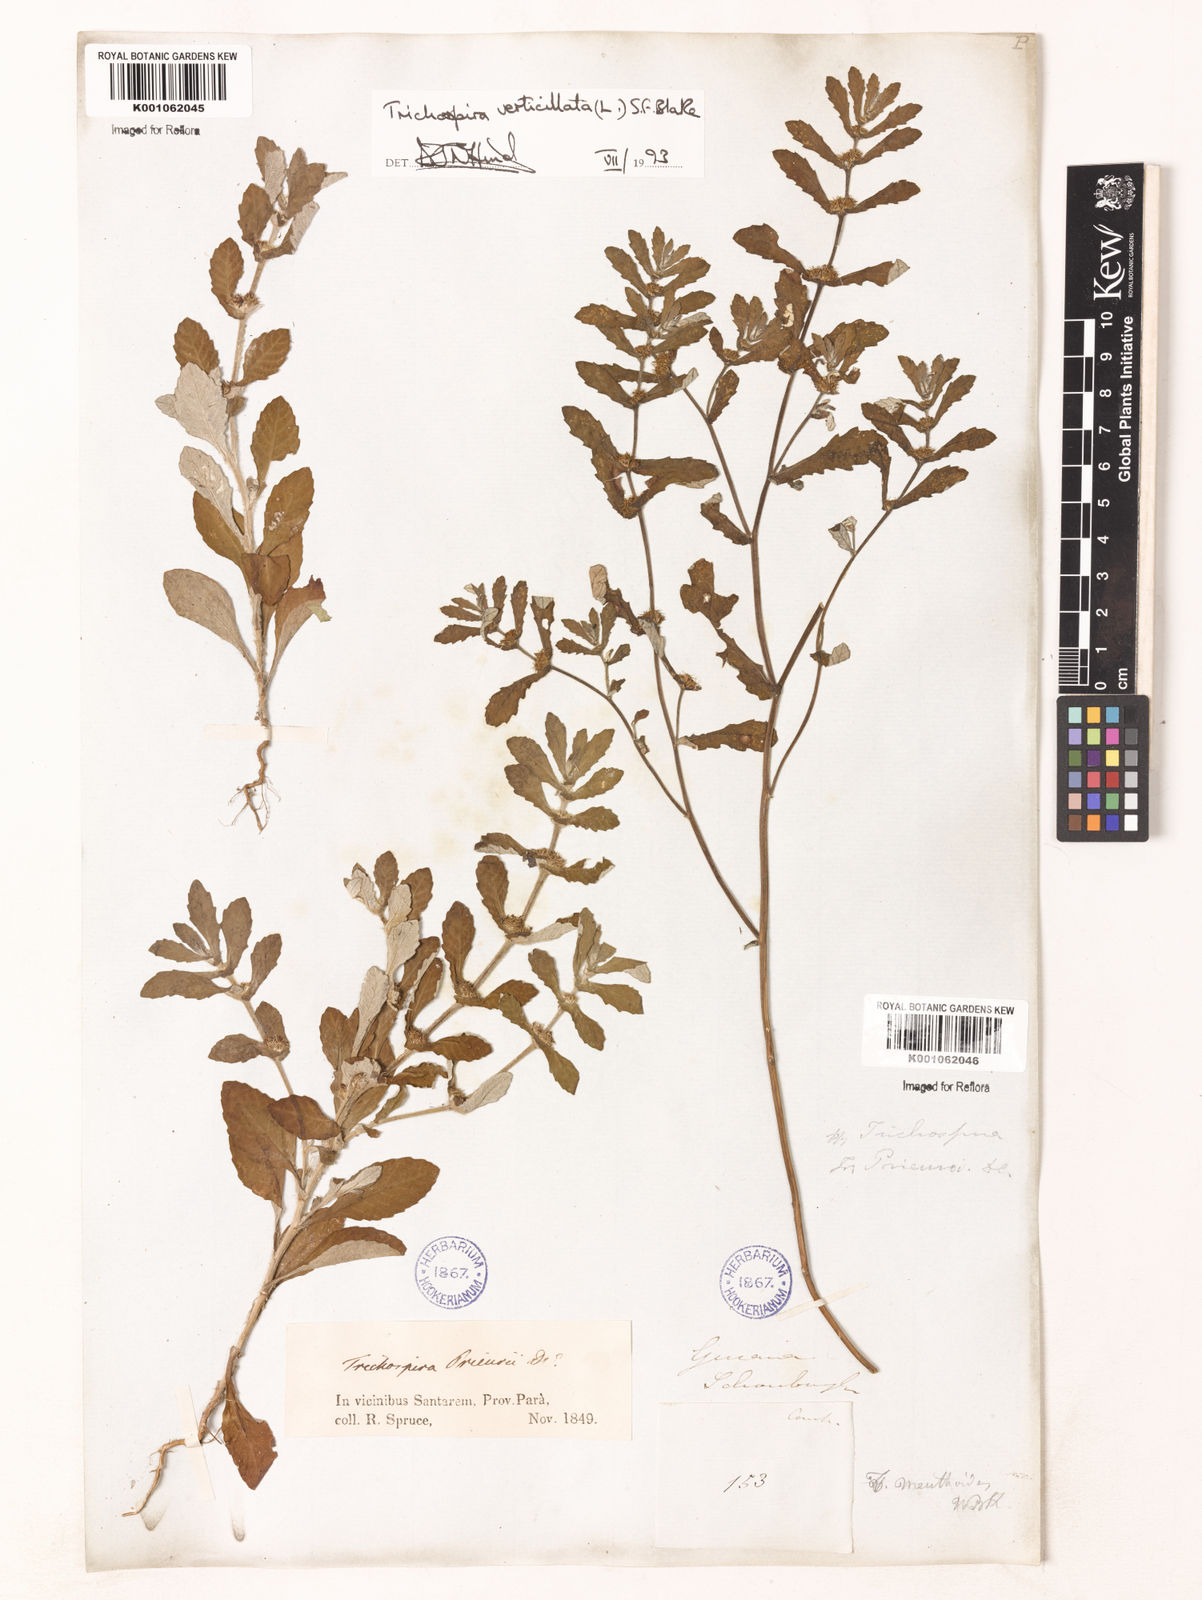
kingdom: Chromista
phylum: Ciliophora
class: Kinetofragminophora
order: Trichostomatida
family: Trichospiridae
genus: Trichospira
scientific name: Trichospira verticillata
